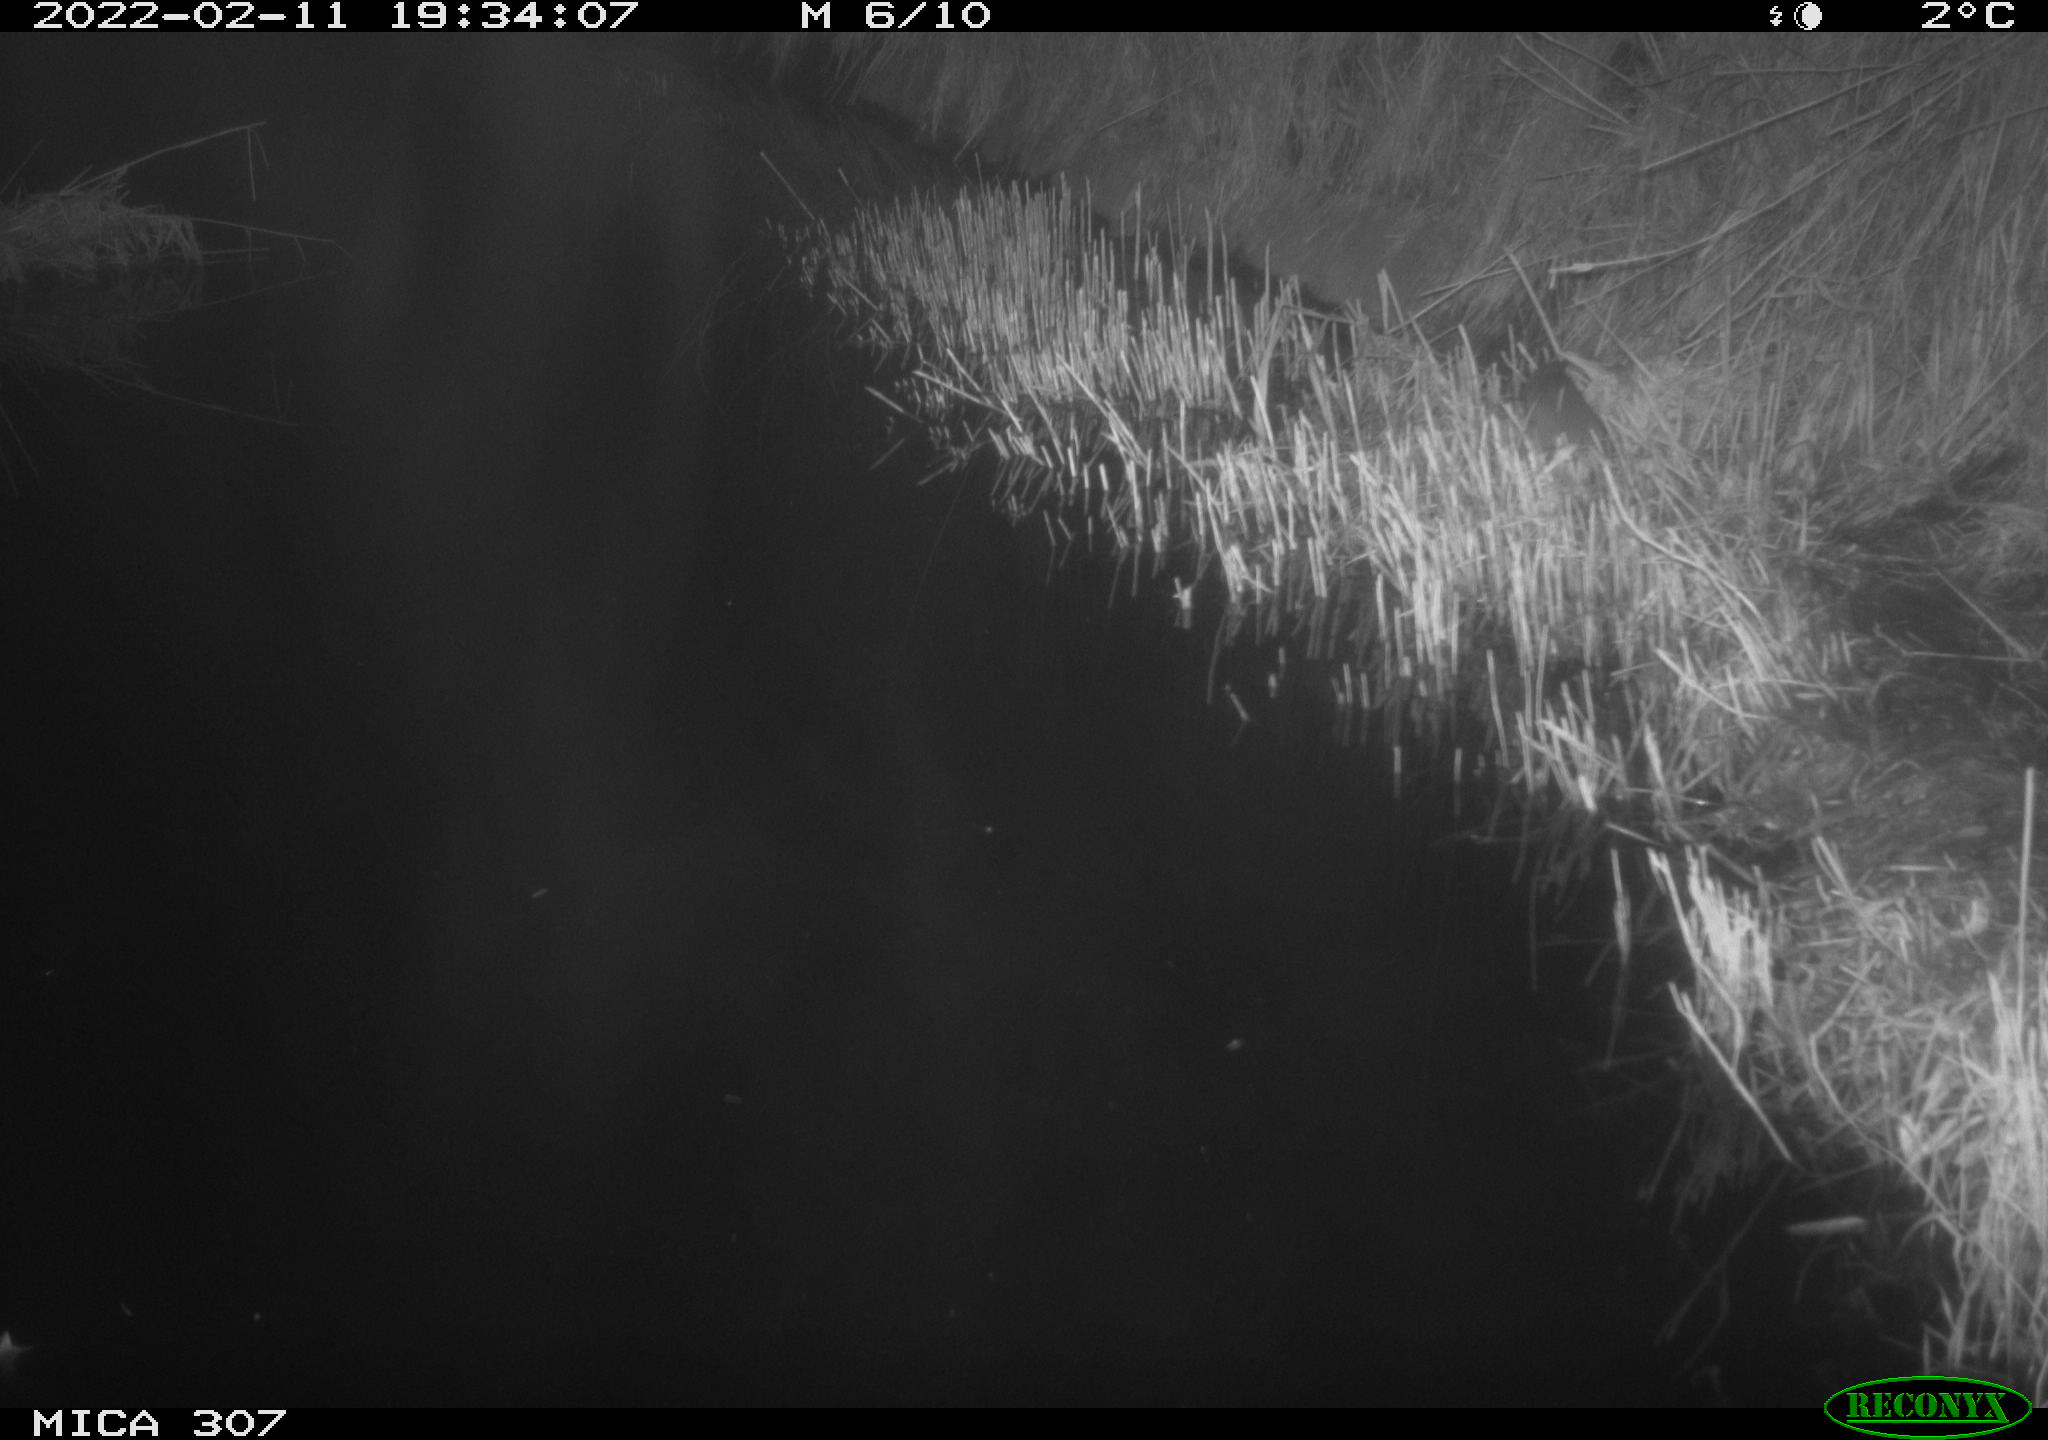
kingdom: Animalia
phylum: Chordata
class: Mammalia
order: Rodentia
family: Muridae
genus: Rattus
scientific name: Rattus norvegicus
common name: Brown rat
